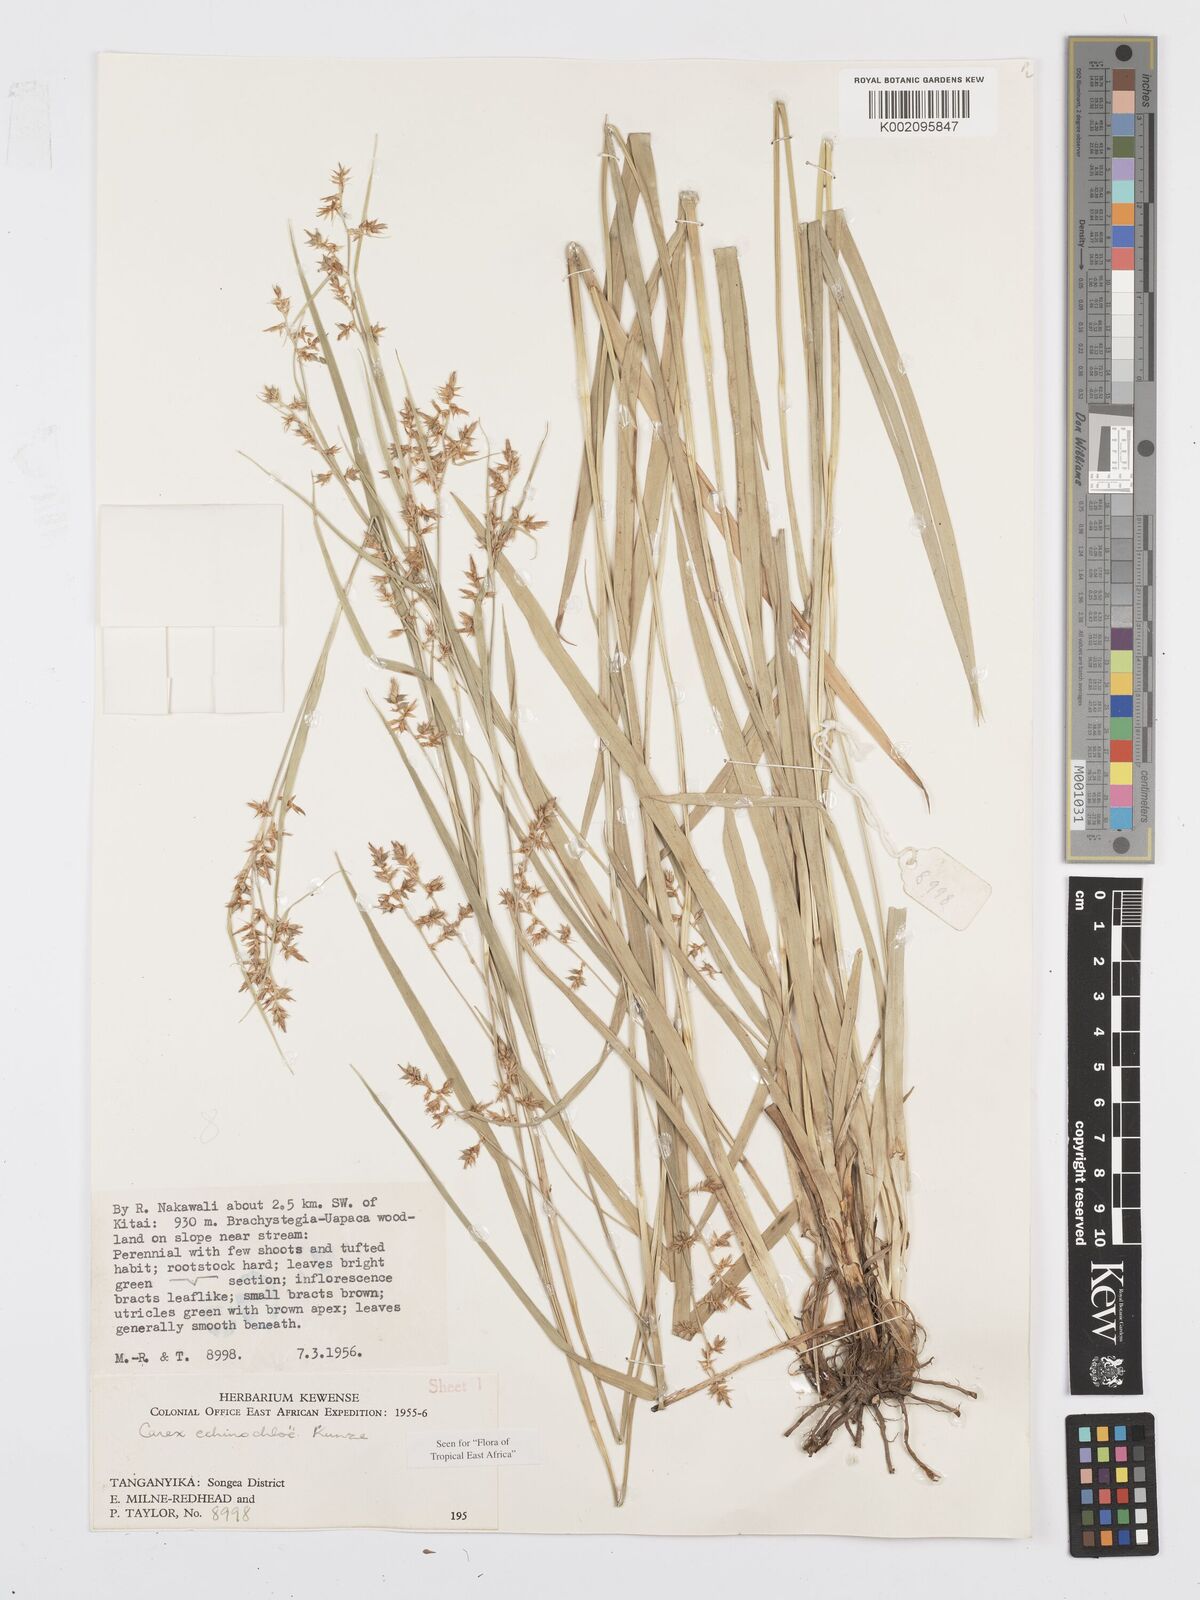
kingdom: Plantae
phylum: Tracheophyta
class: Liliopsida
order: Poales
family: Cyperaceae
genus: Carex
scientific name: Carex echinochloe
